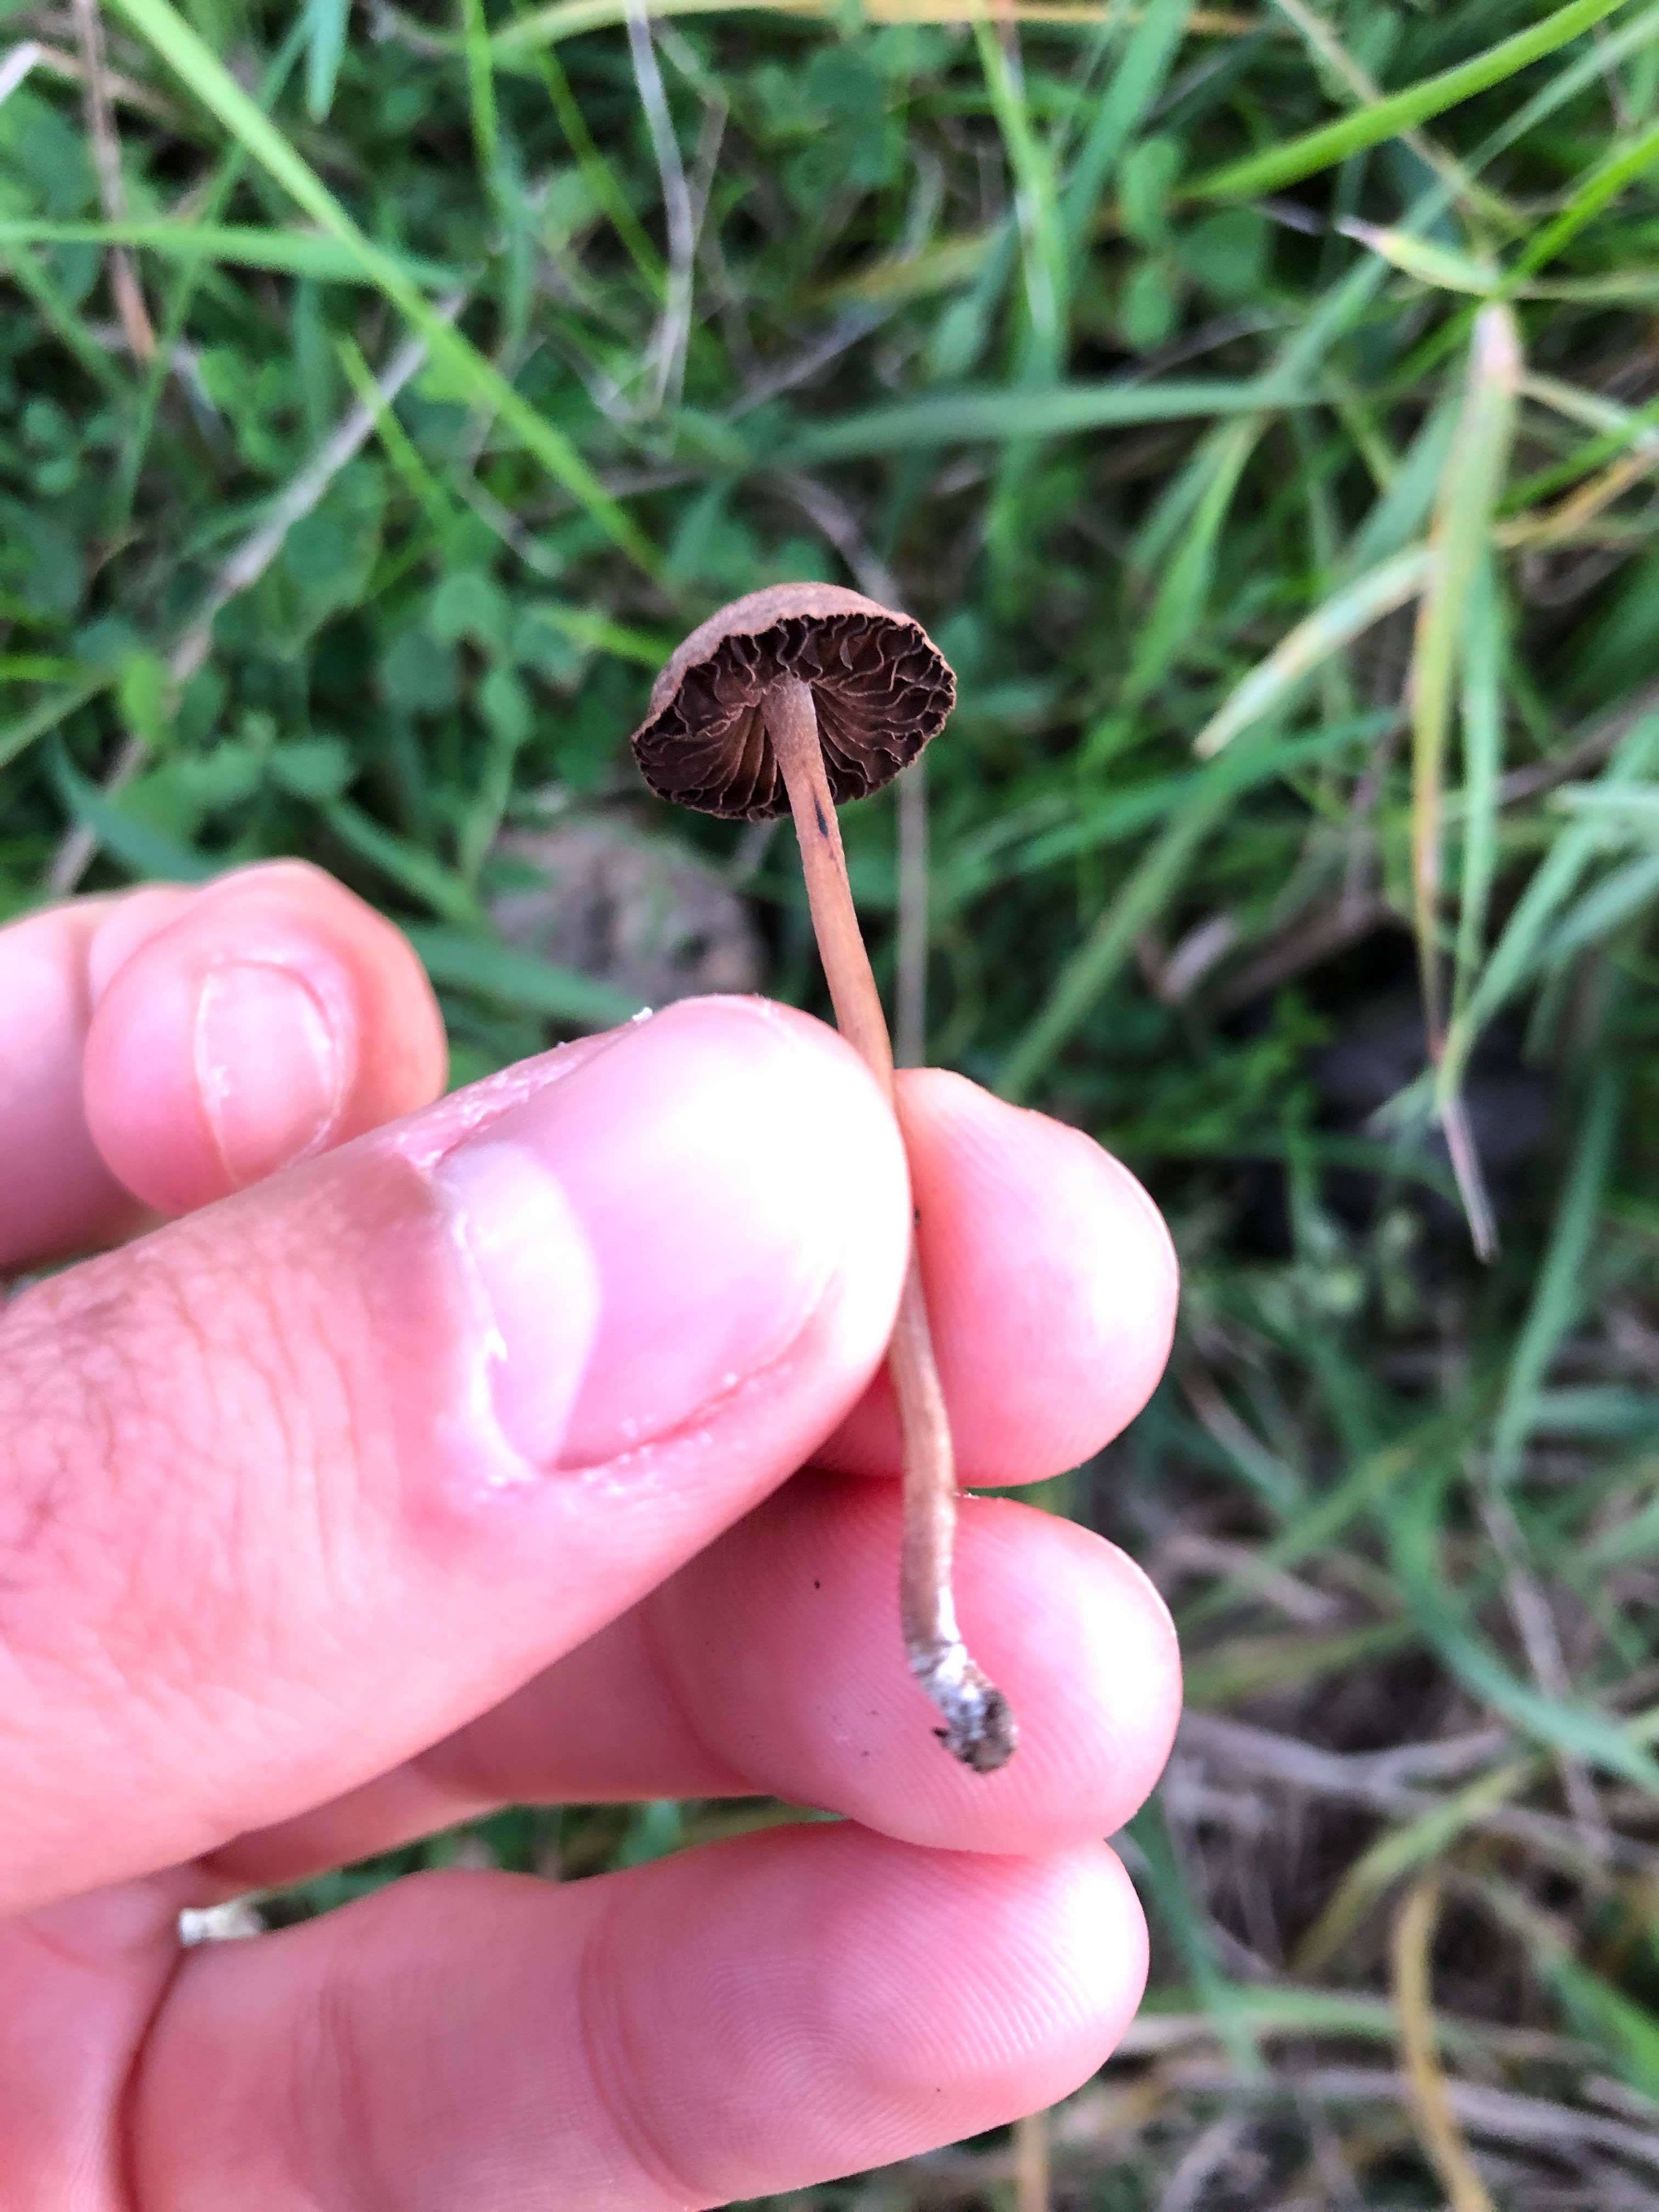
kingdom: Fungi
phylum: Basidiomycota
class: Agaricomycetes
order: Agaricales
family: Bolbitiaceae
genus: Panaeolus
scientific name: Panaeolus
